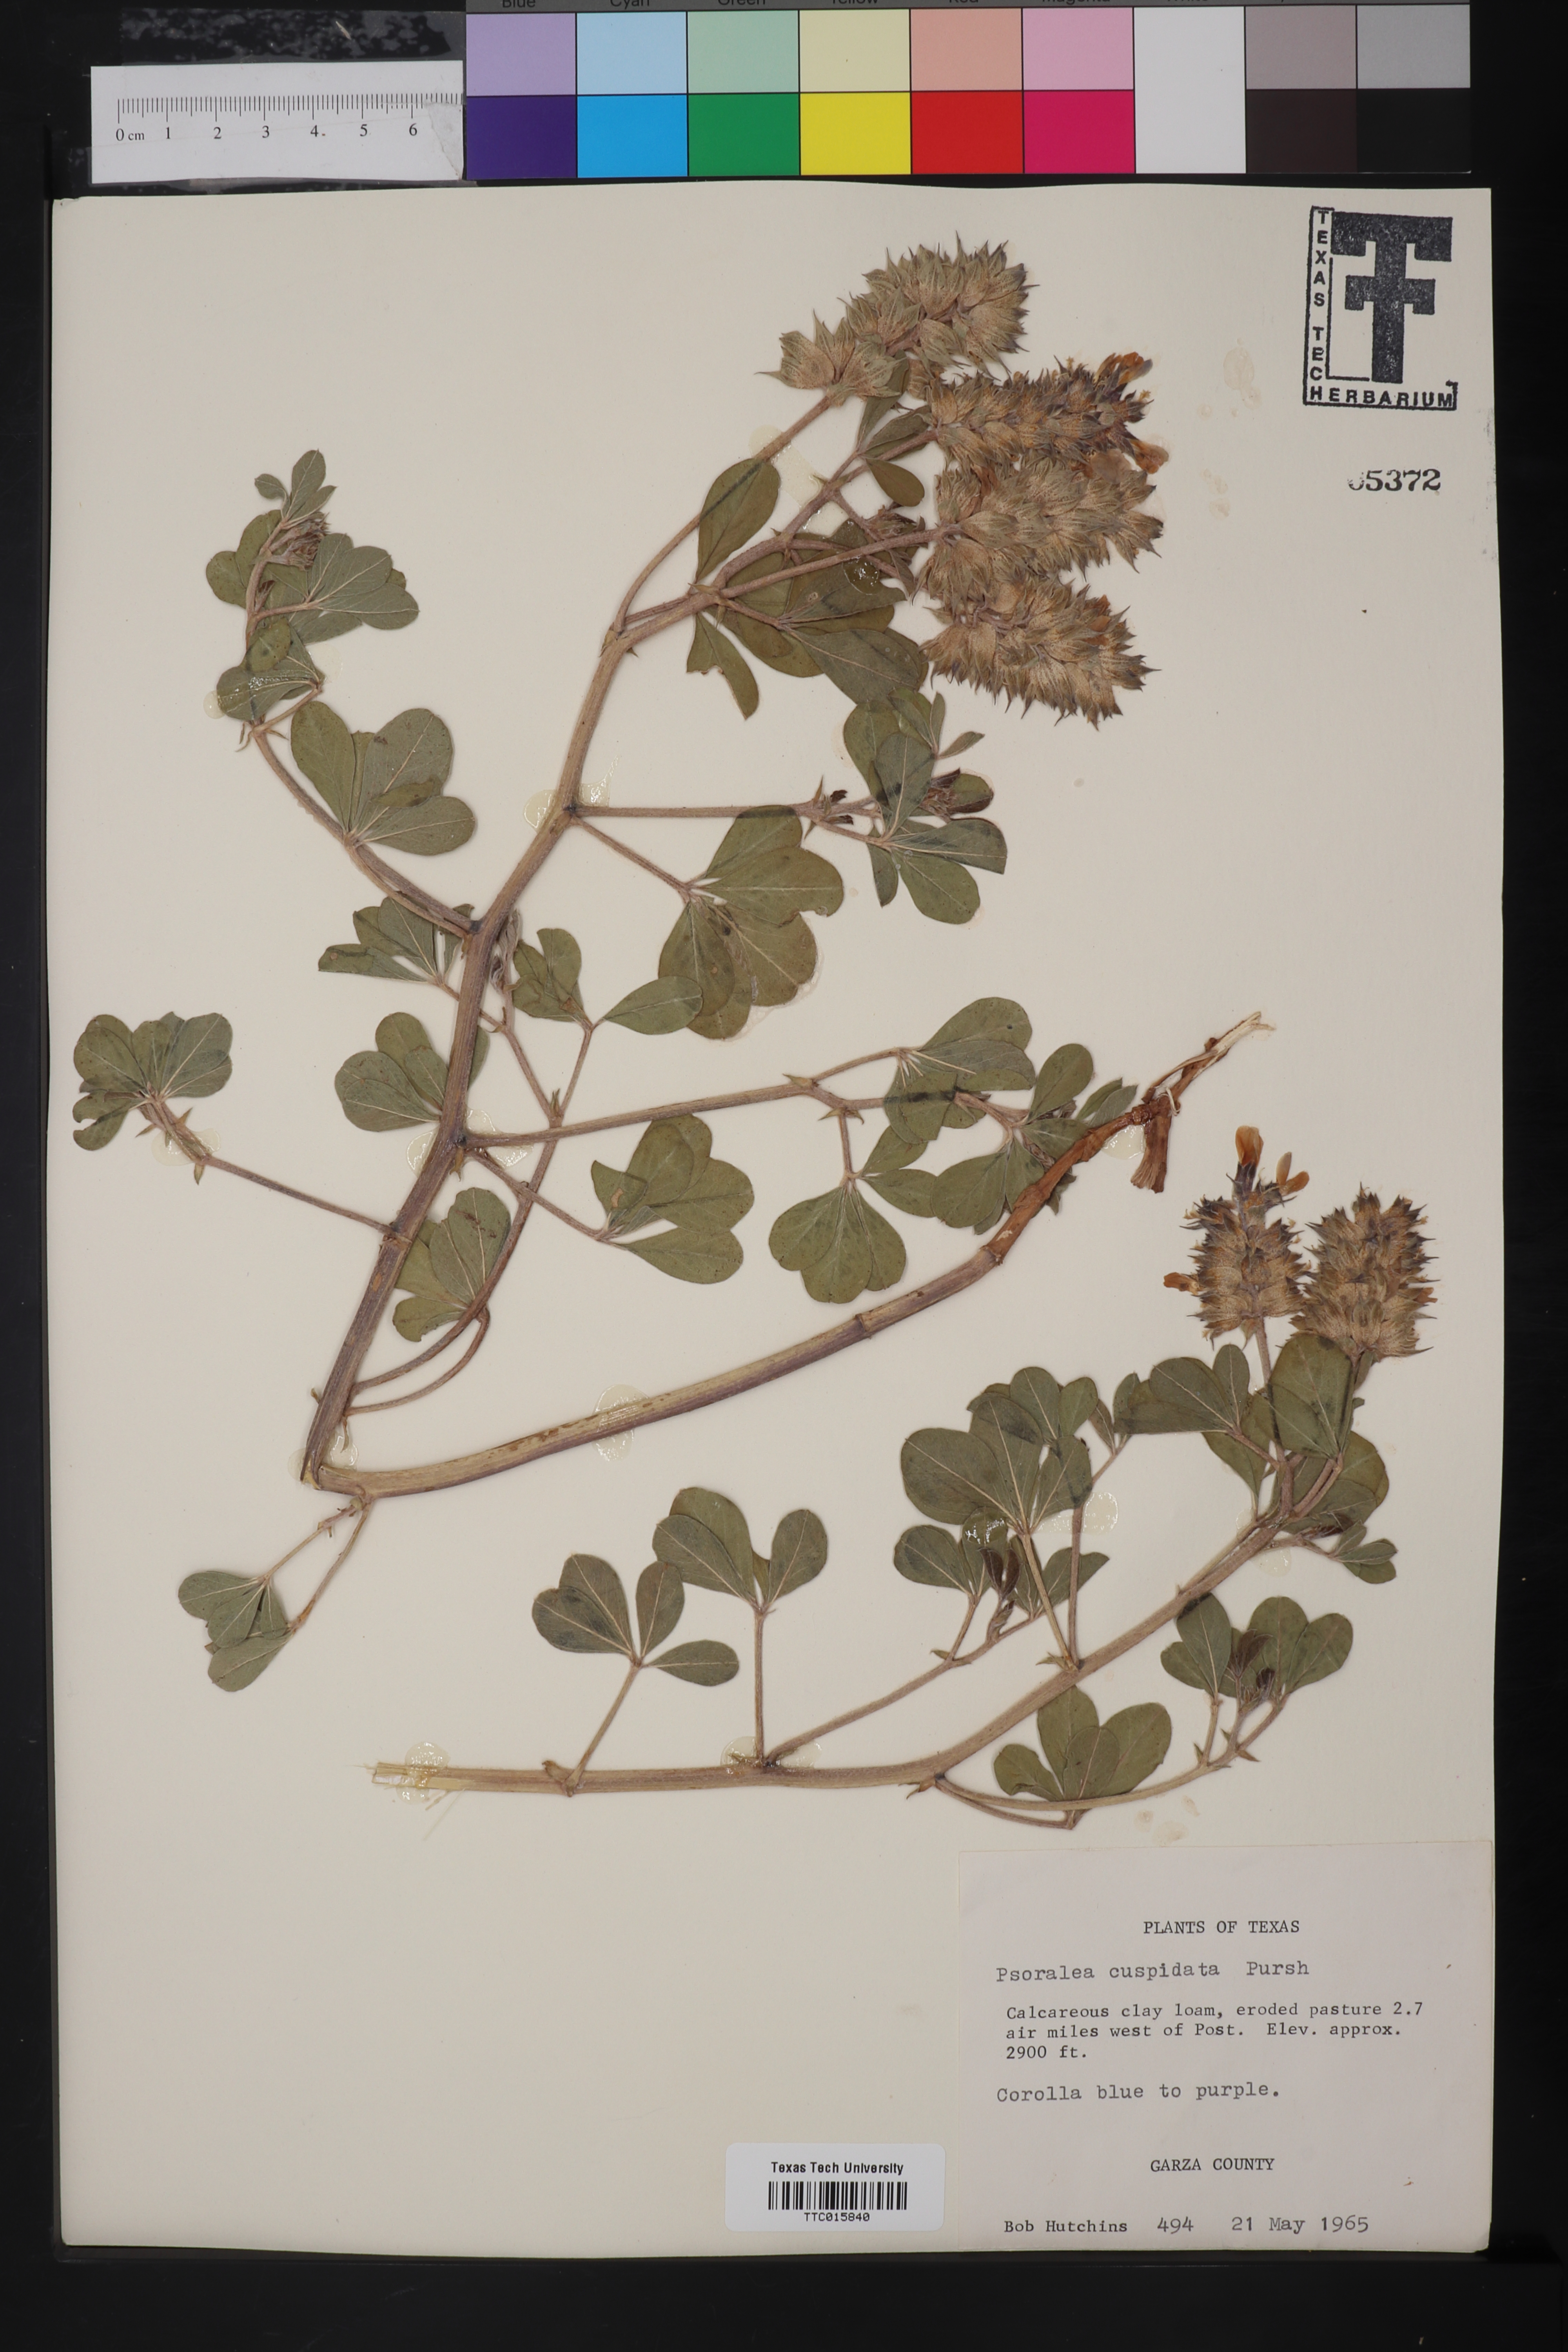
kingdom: Plantae
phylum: Tracheophyta
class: Magnoliopsida
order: Fabales
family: Fabaceae
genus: Pediomelum
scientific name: Pediomelum cuspidatum
